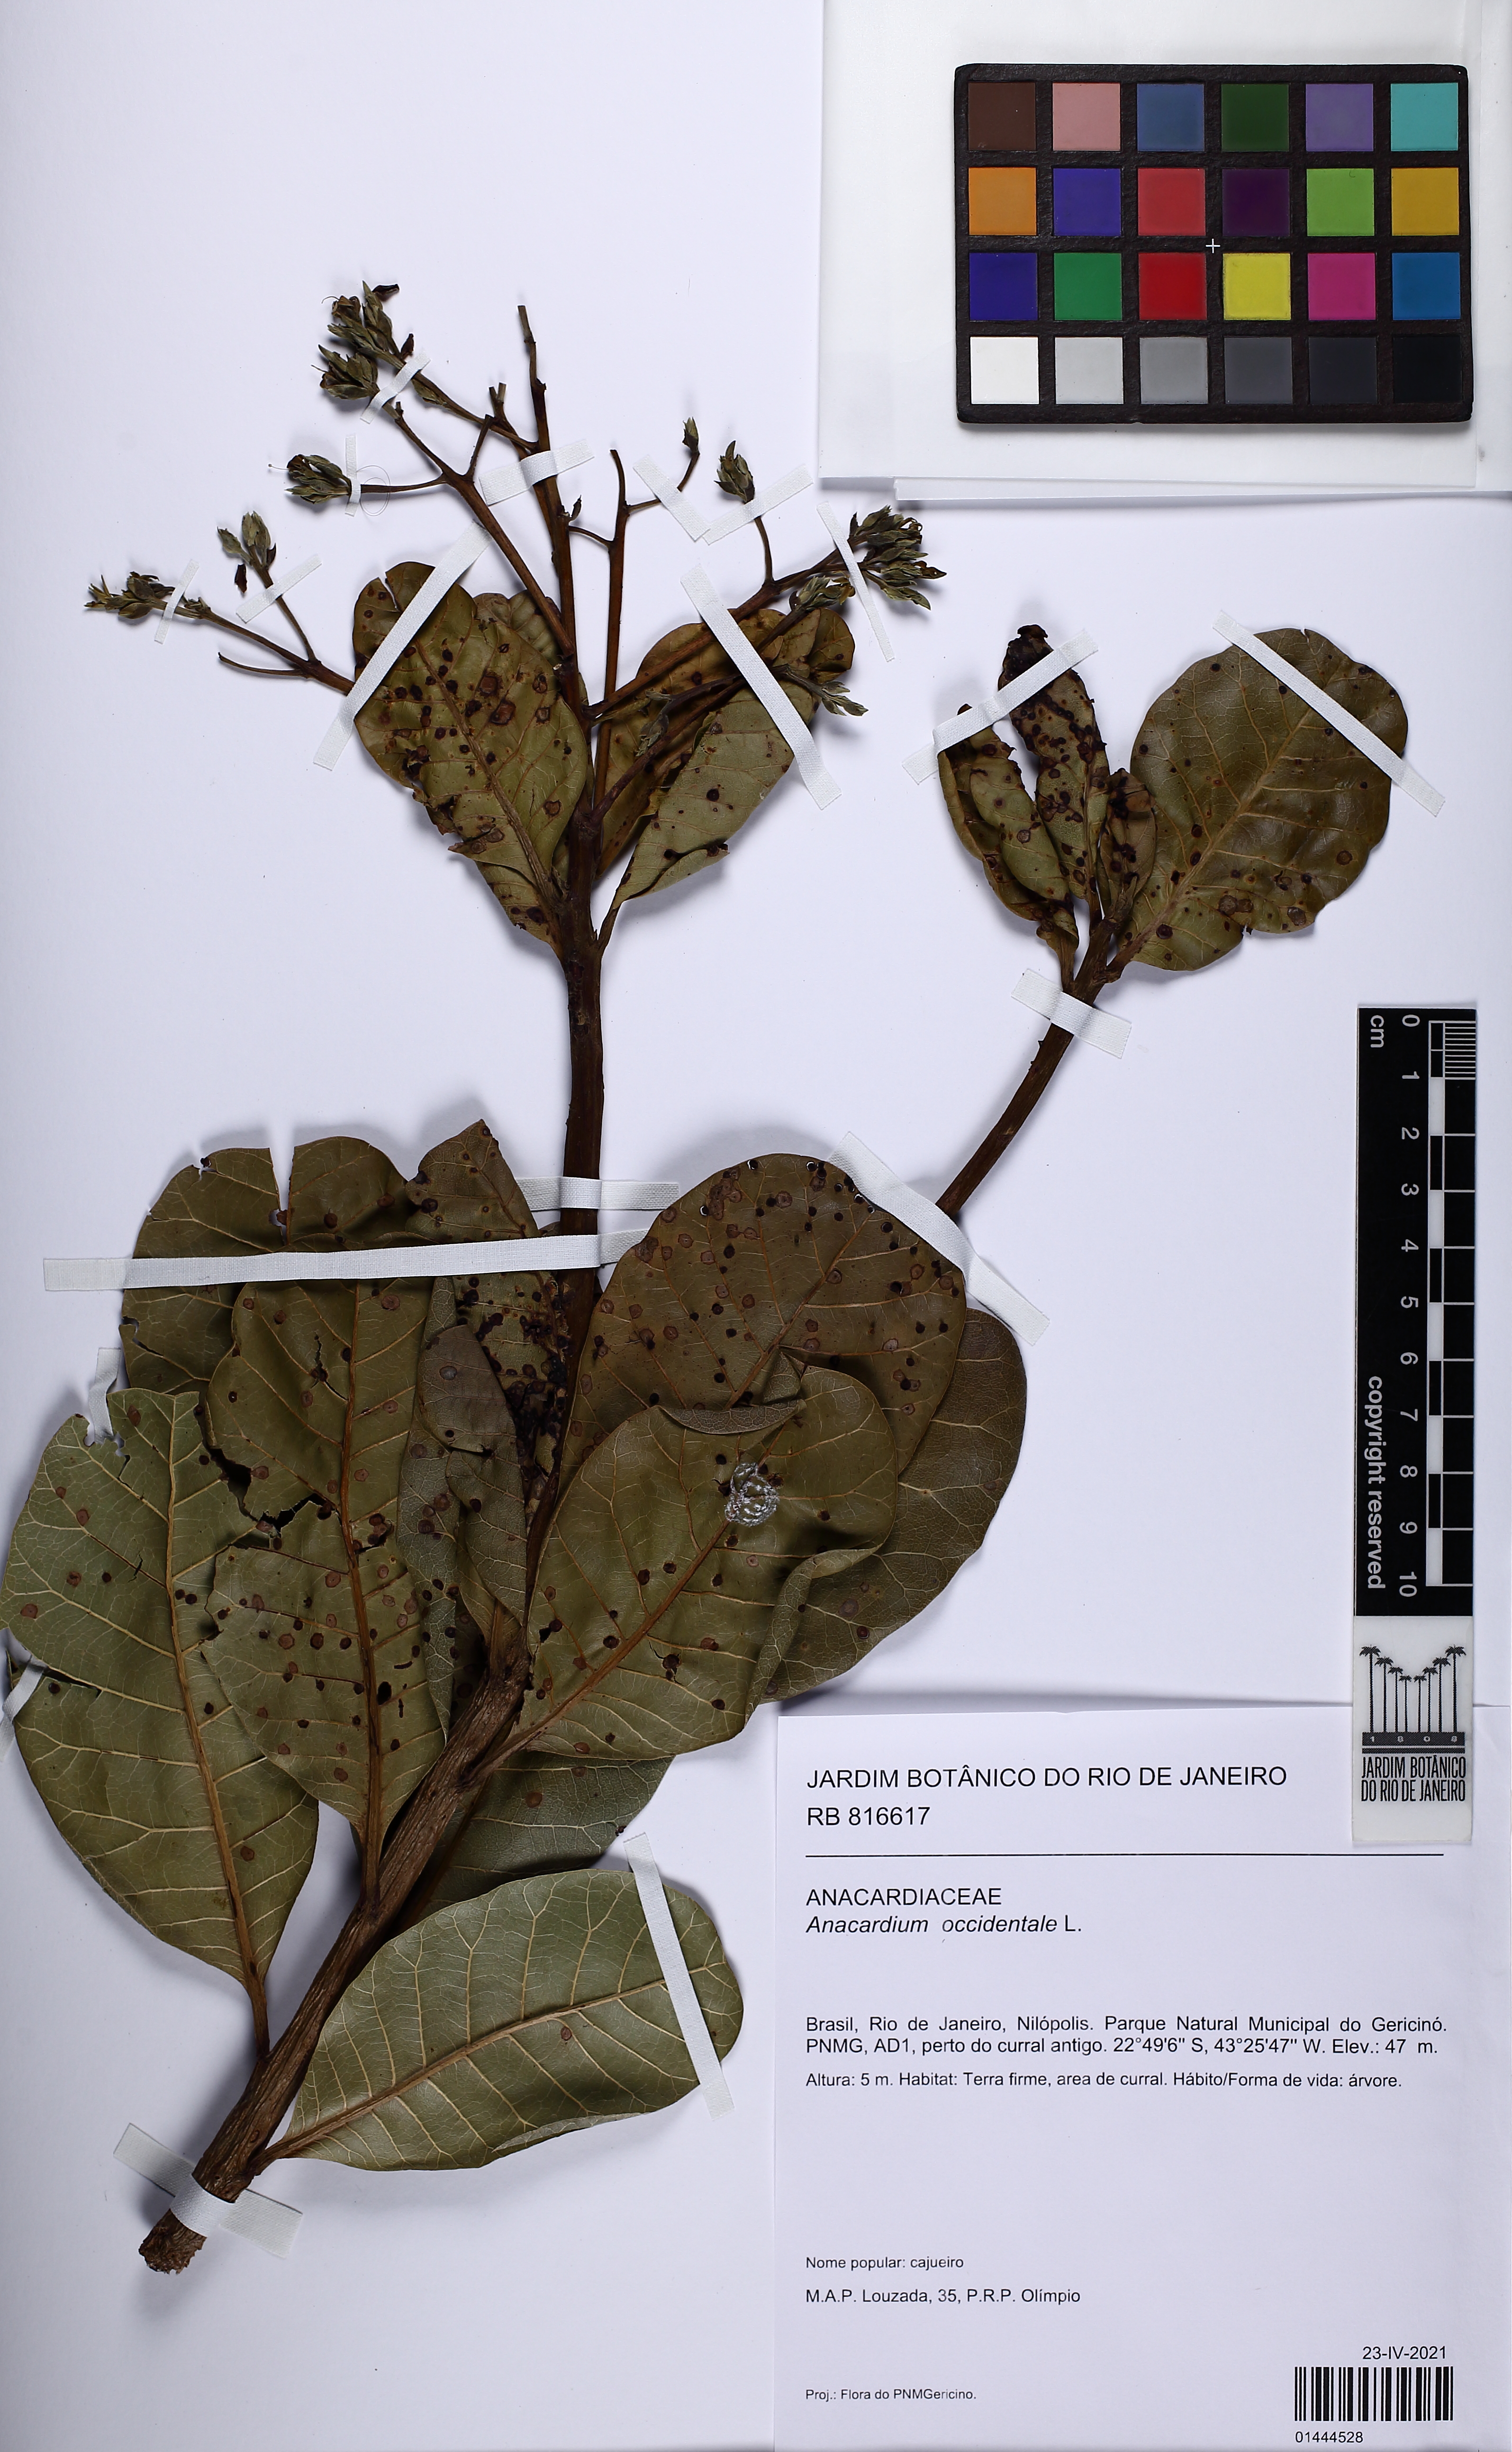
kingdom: Plantae
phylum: Tracheophyta
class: Magnoliopsida
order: Sapindales
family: Anacardiaceae
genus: Anacardium
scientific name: Anacardium occidentale
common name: Cashew
